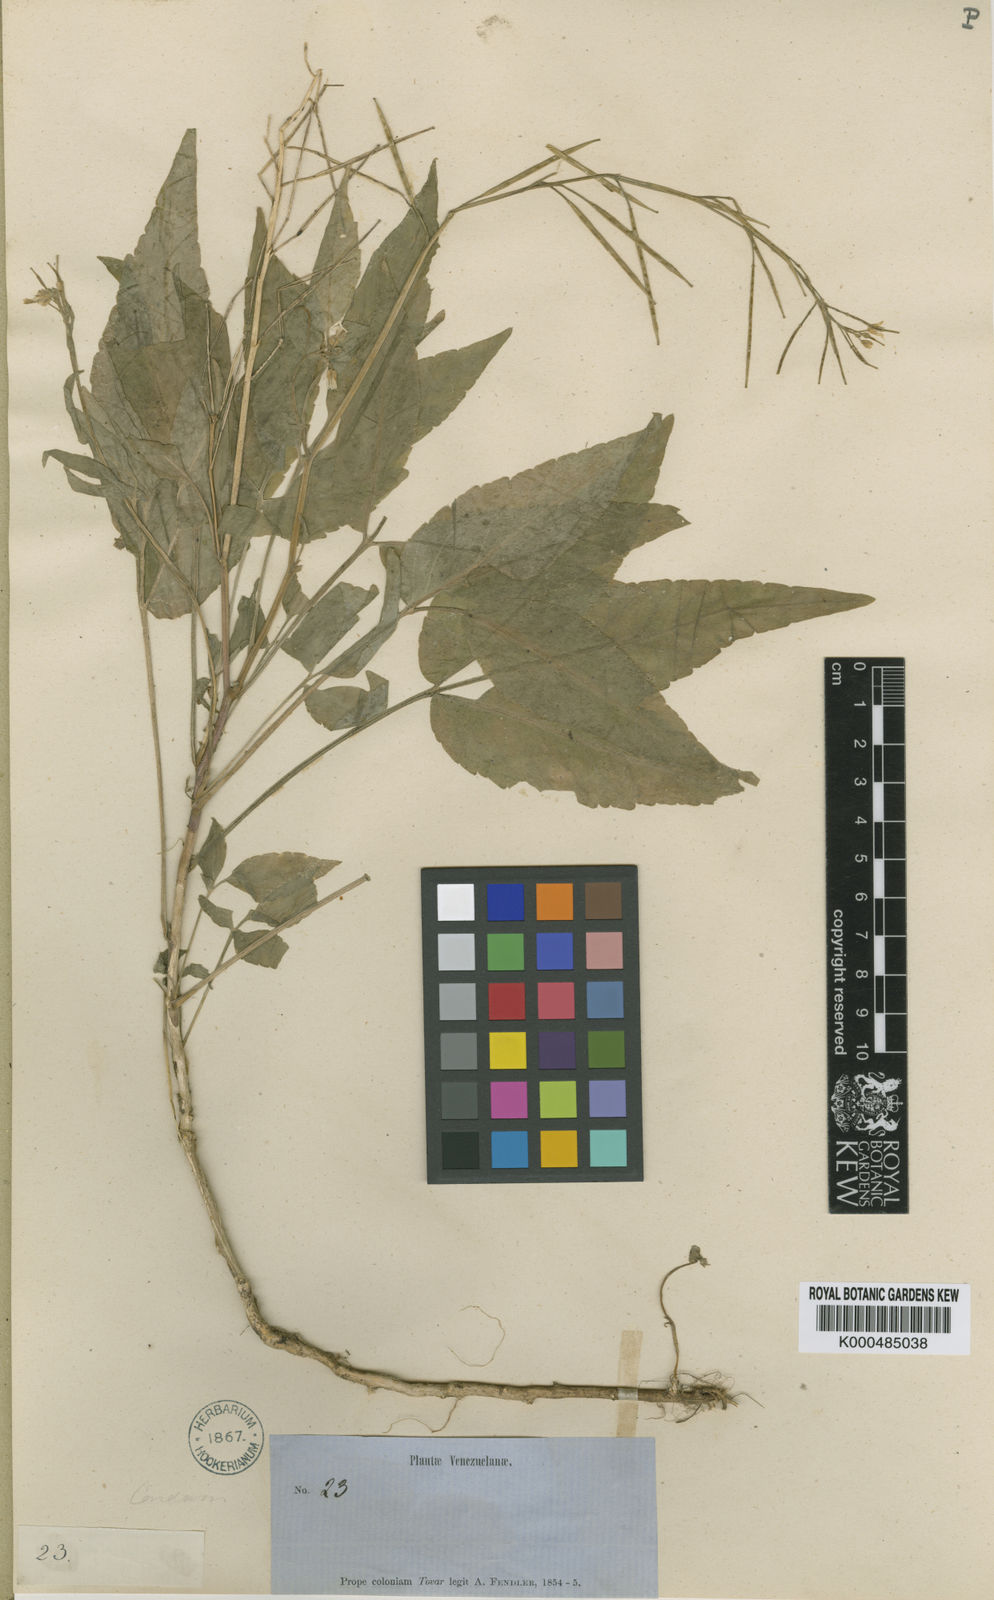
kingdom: Plantae
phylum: Tracheophyta
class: Magnoliopsida
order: Brassicales
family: Brassicaceae
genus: Cardamine
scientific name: Cardamine fulcrata
